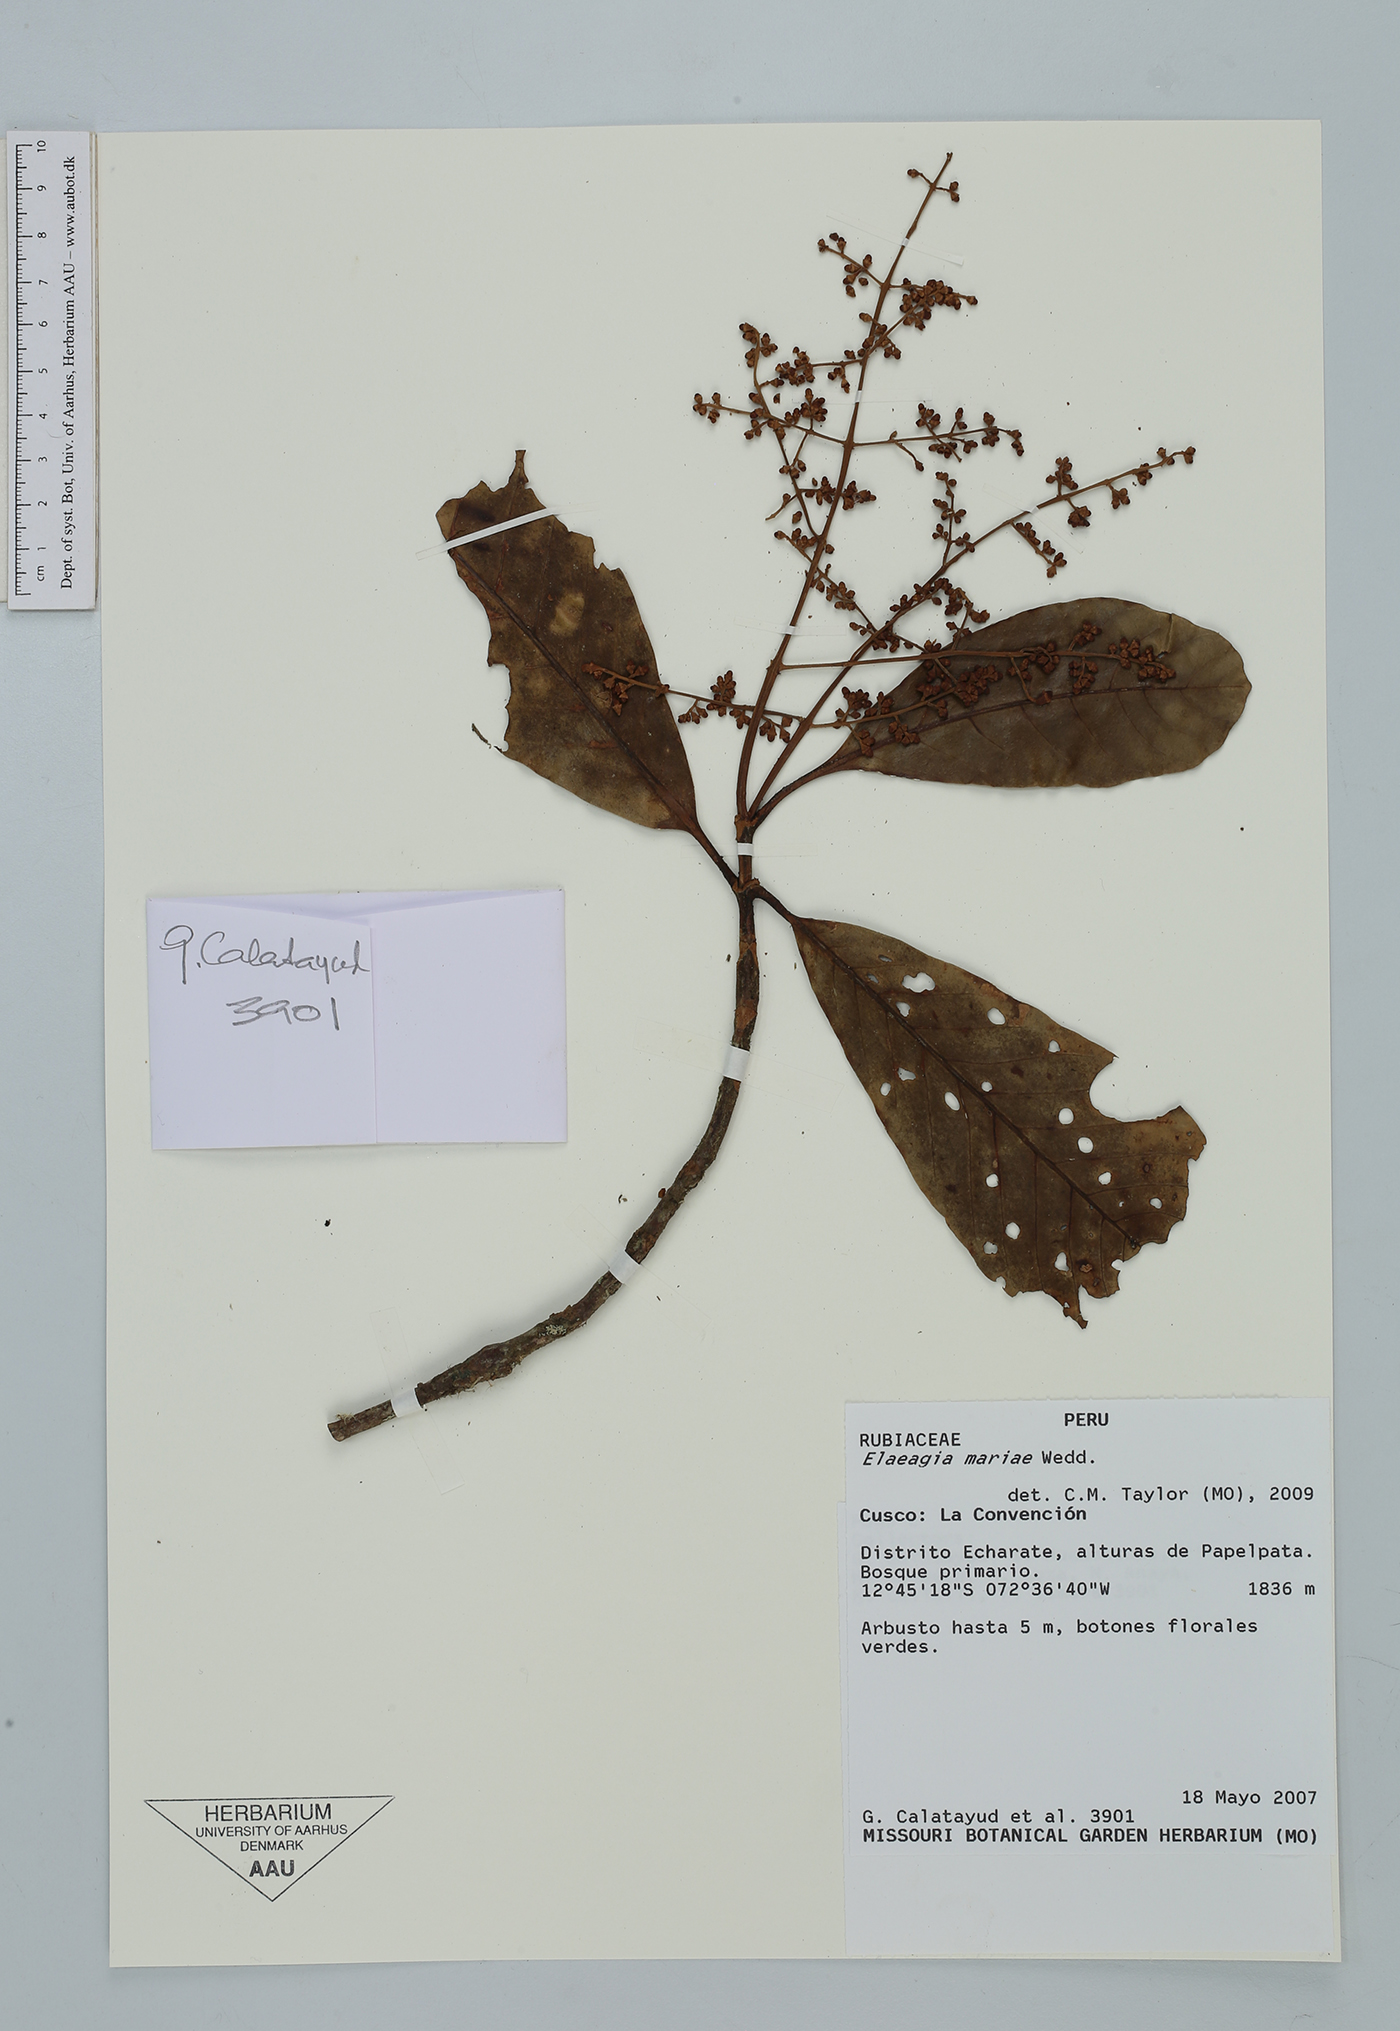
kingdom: Plantae
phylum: Tracheophyta
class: Magnoliopsida
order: Gentianales
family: Rubiaceae
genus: Elaeagia
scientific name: Elaeagia mariae
